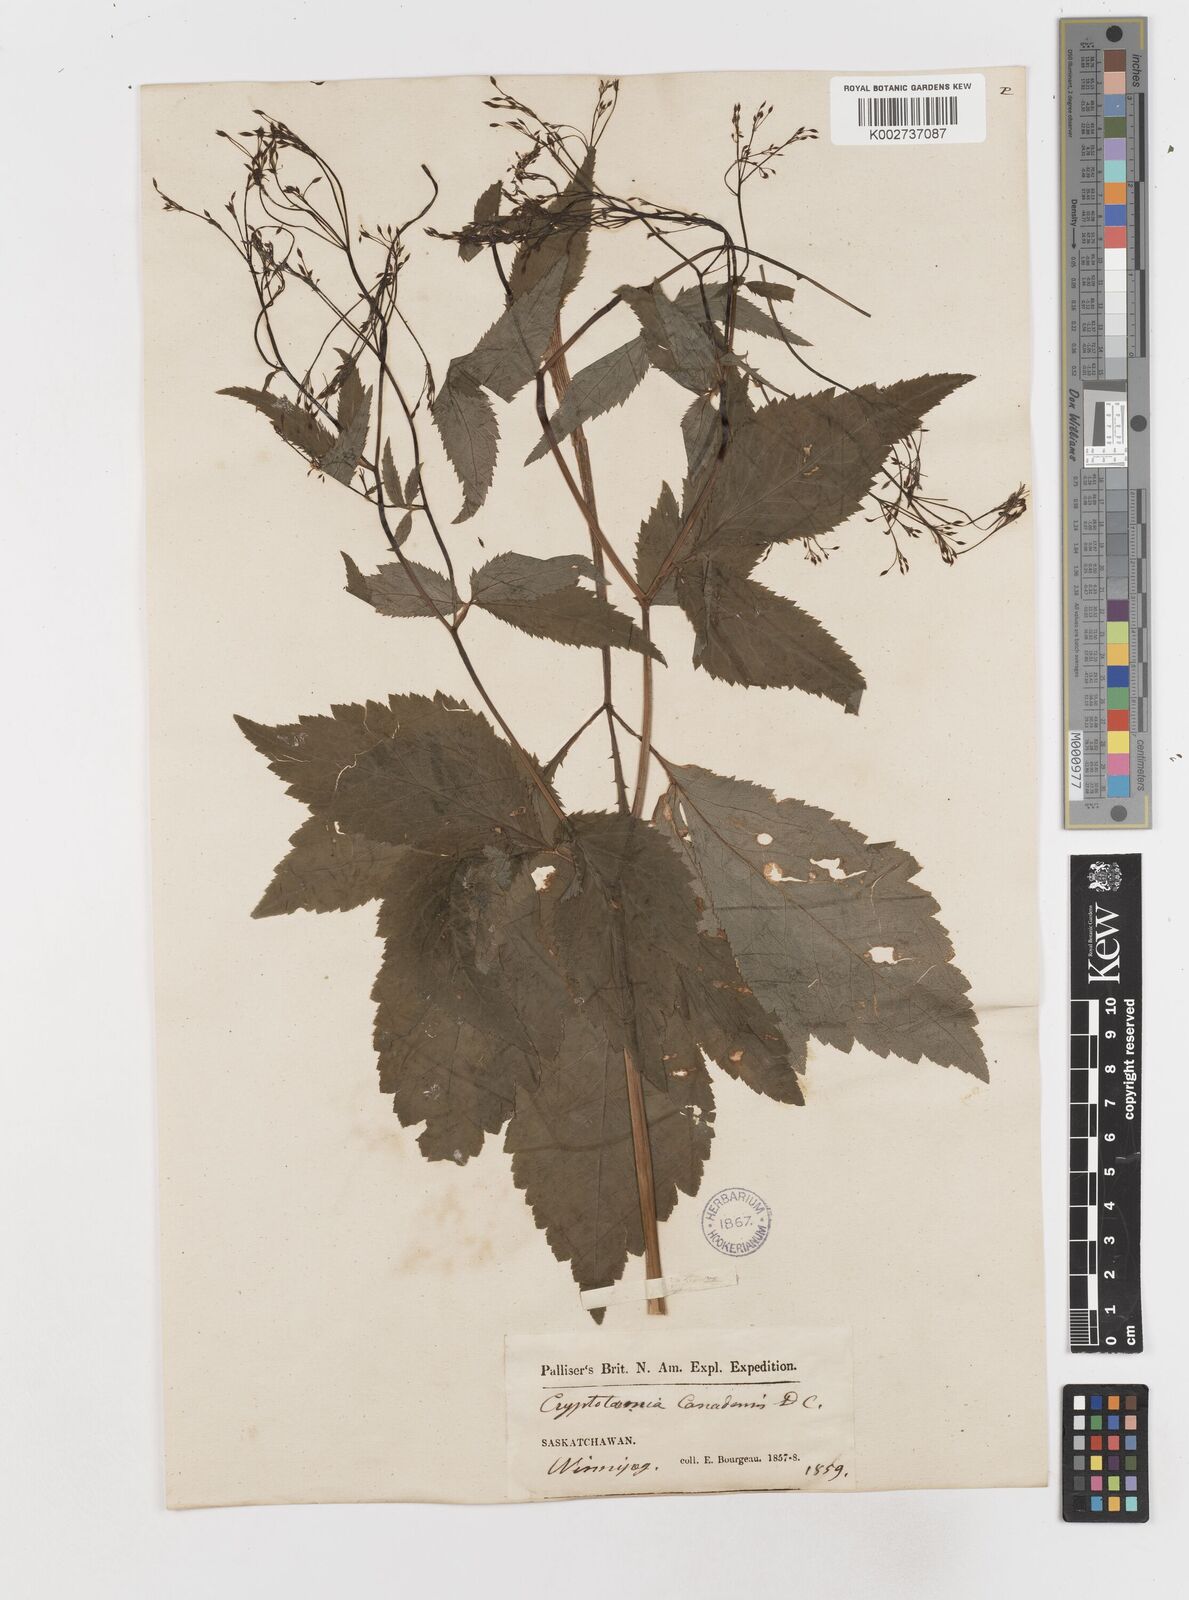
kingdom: Plantae
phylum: Tracheophyta
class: Magnoliopsida
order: Apiales
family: Apiaceae
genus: Cryptotaenia
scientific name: Cryptotaenia canadensis
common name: Honewort
